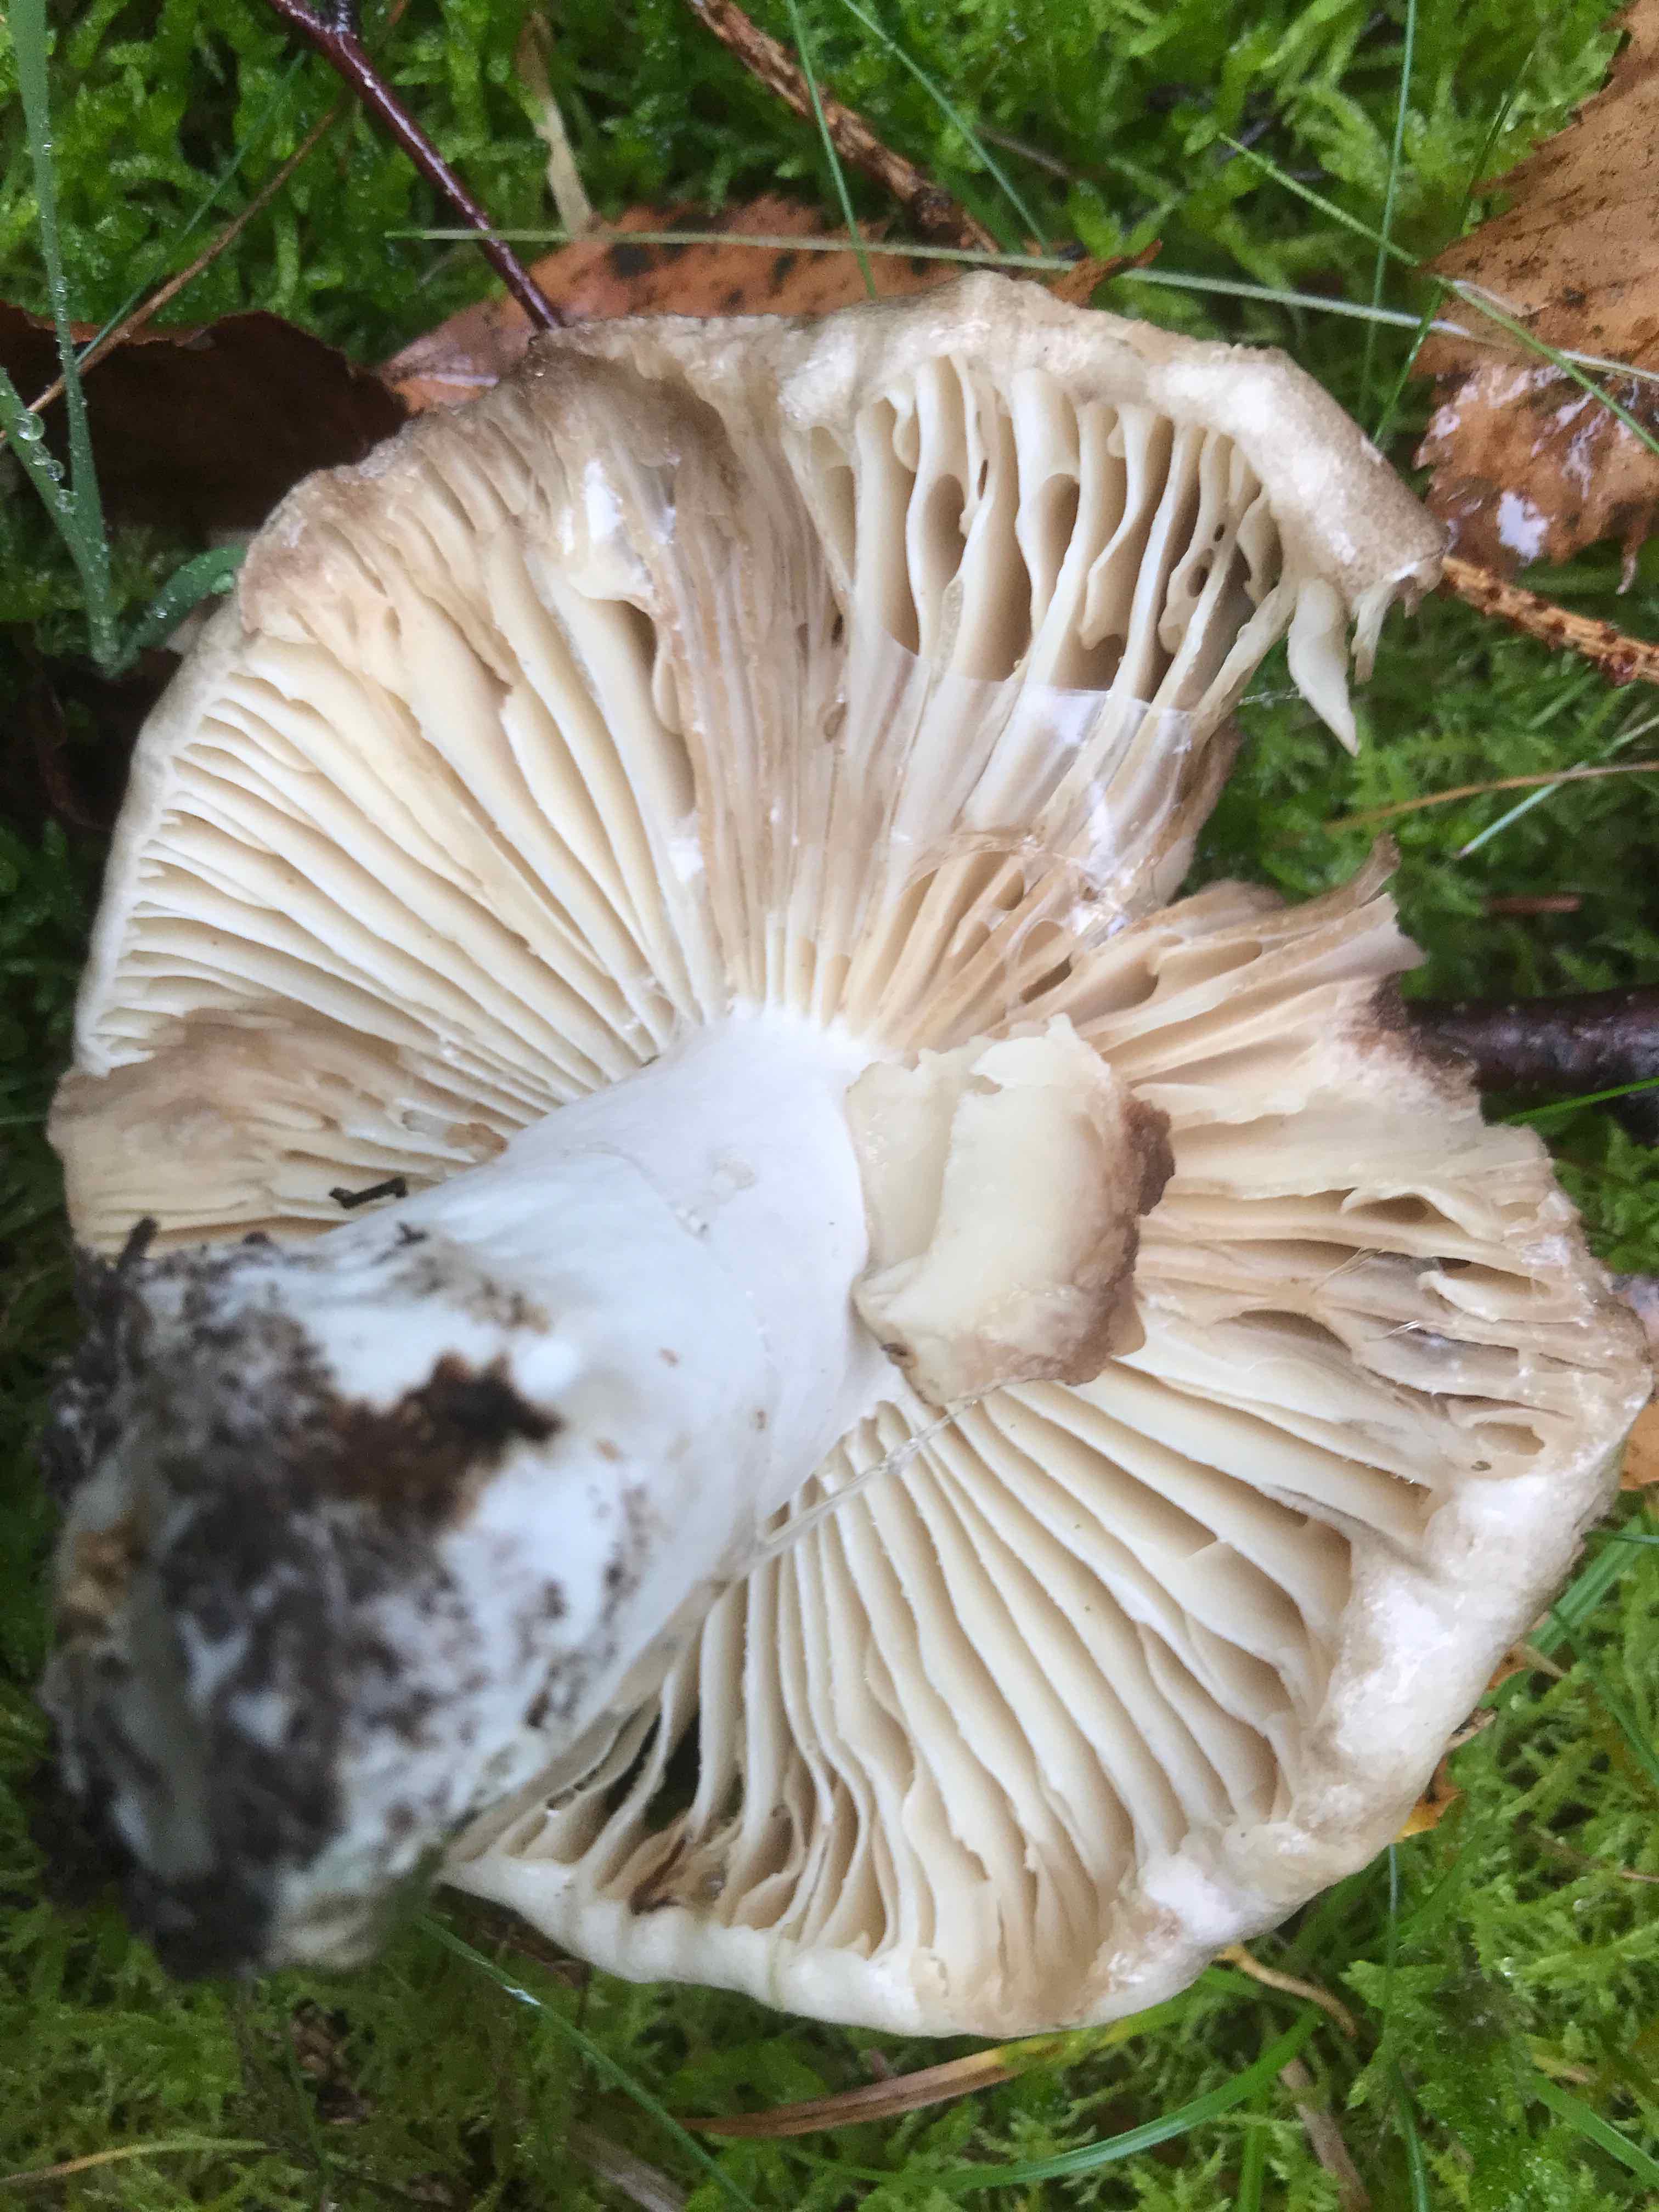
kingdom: Fungi
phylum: Basidiomycota
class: Agaricomycetes
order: Russulales
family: Russulaceae
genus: Russula
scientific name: Russula adusta
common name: sværtende skørhat
